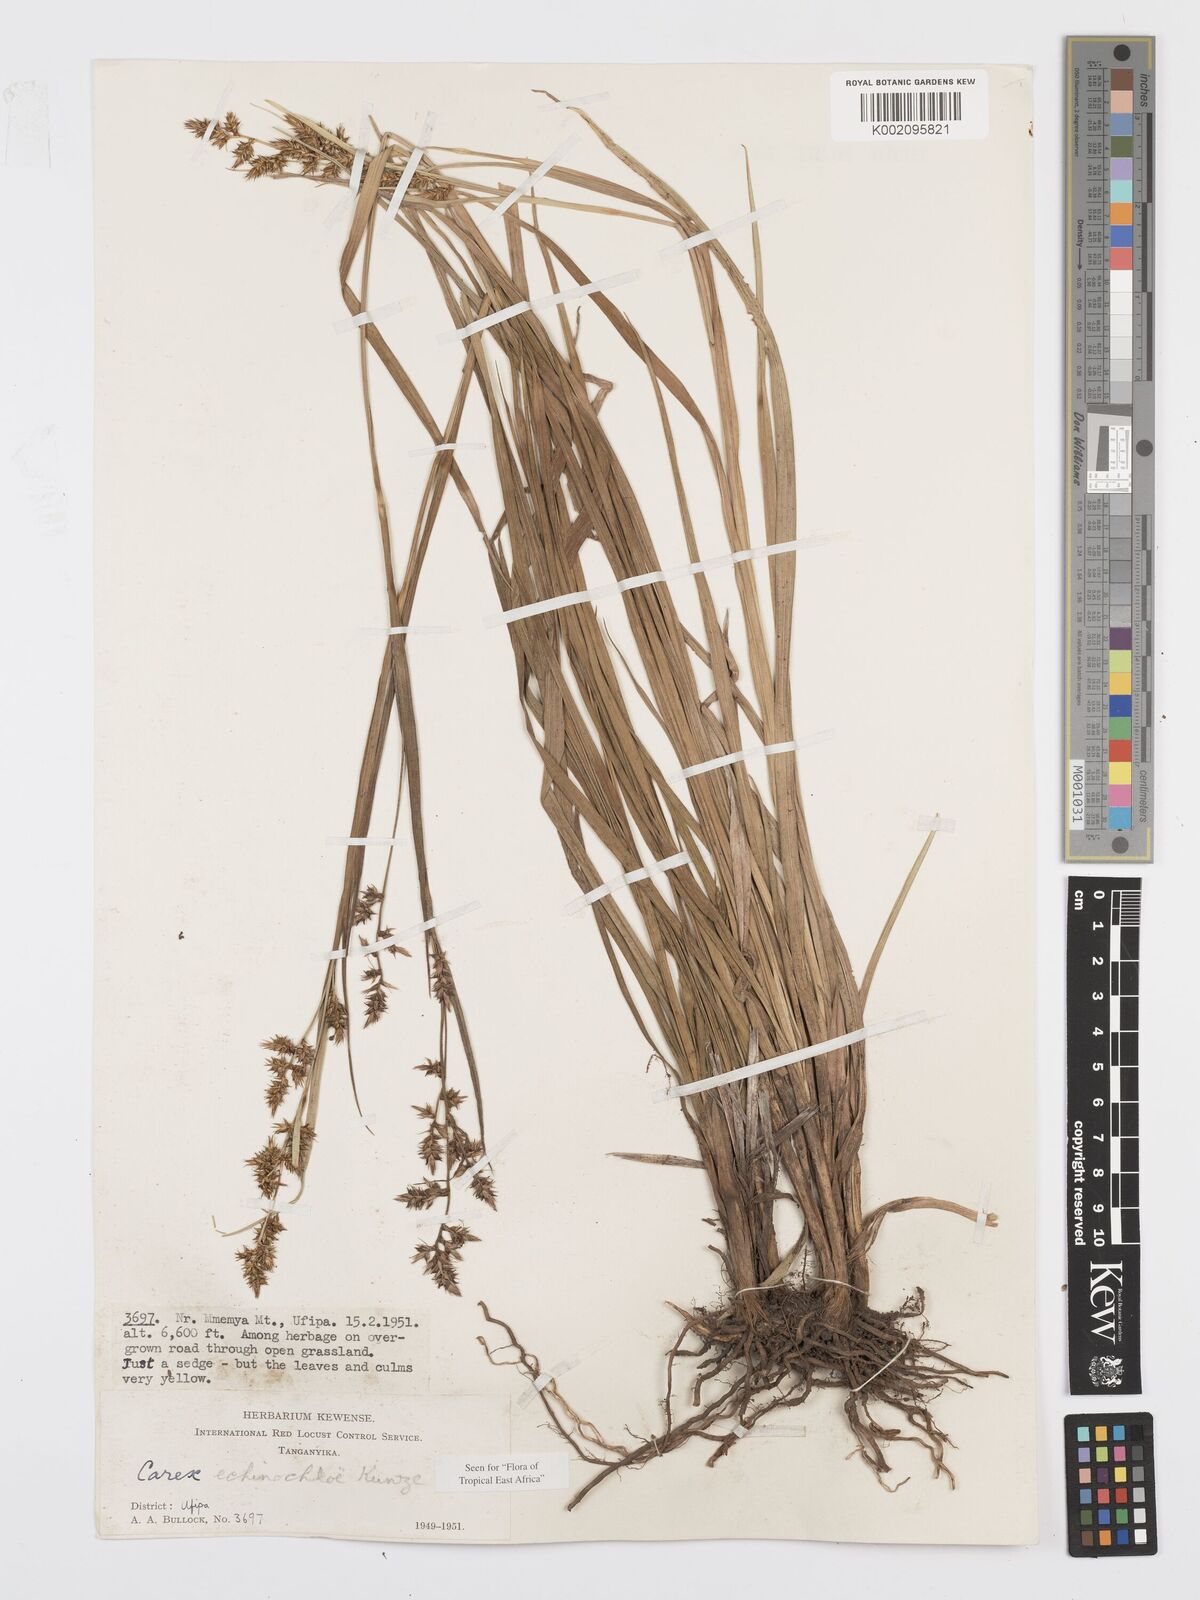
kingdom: Plantae
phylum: Tracheophyta
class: Liliopsida
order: Poales
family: Cyperaceae
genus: Carex
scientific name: Carex
